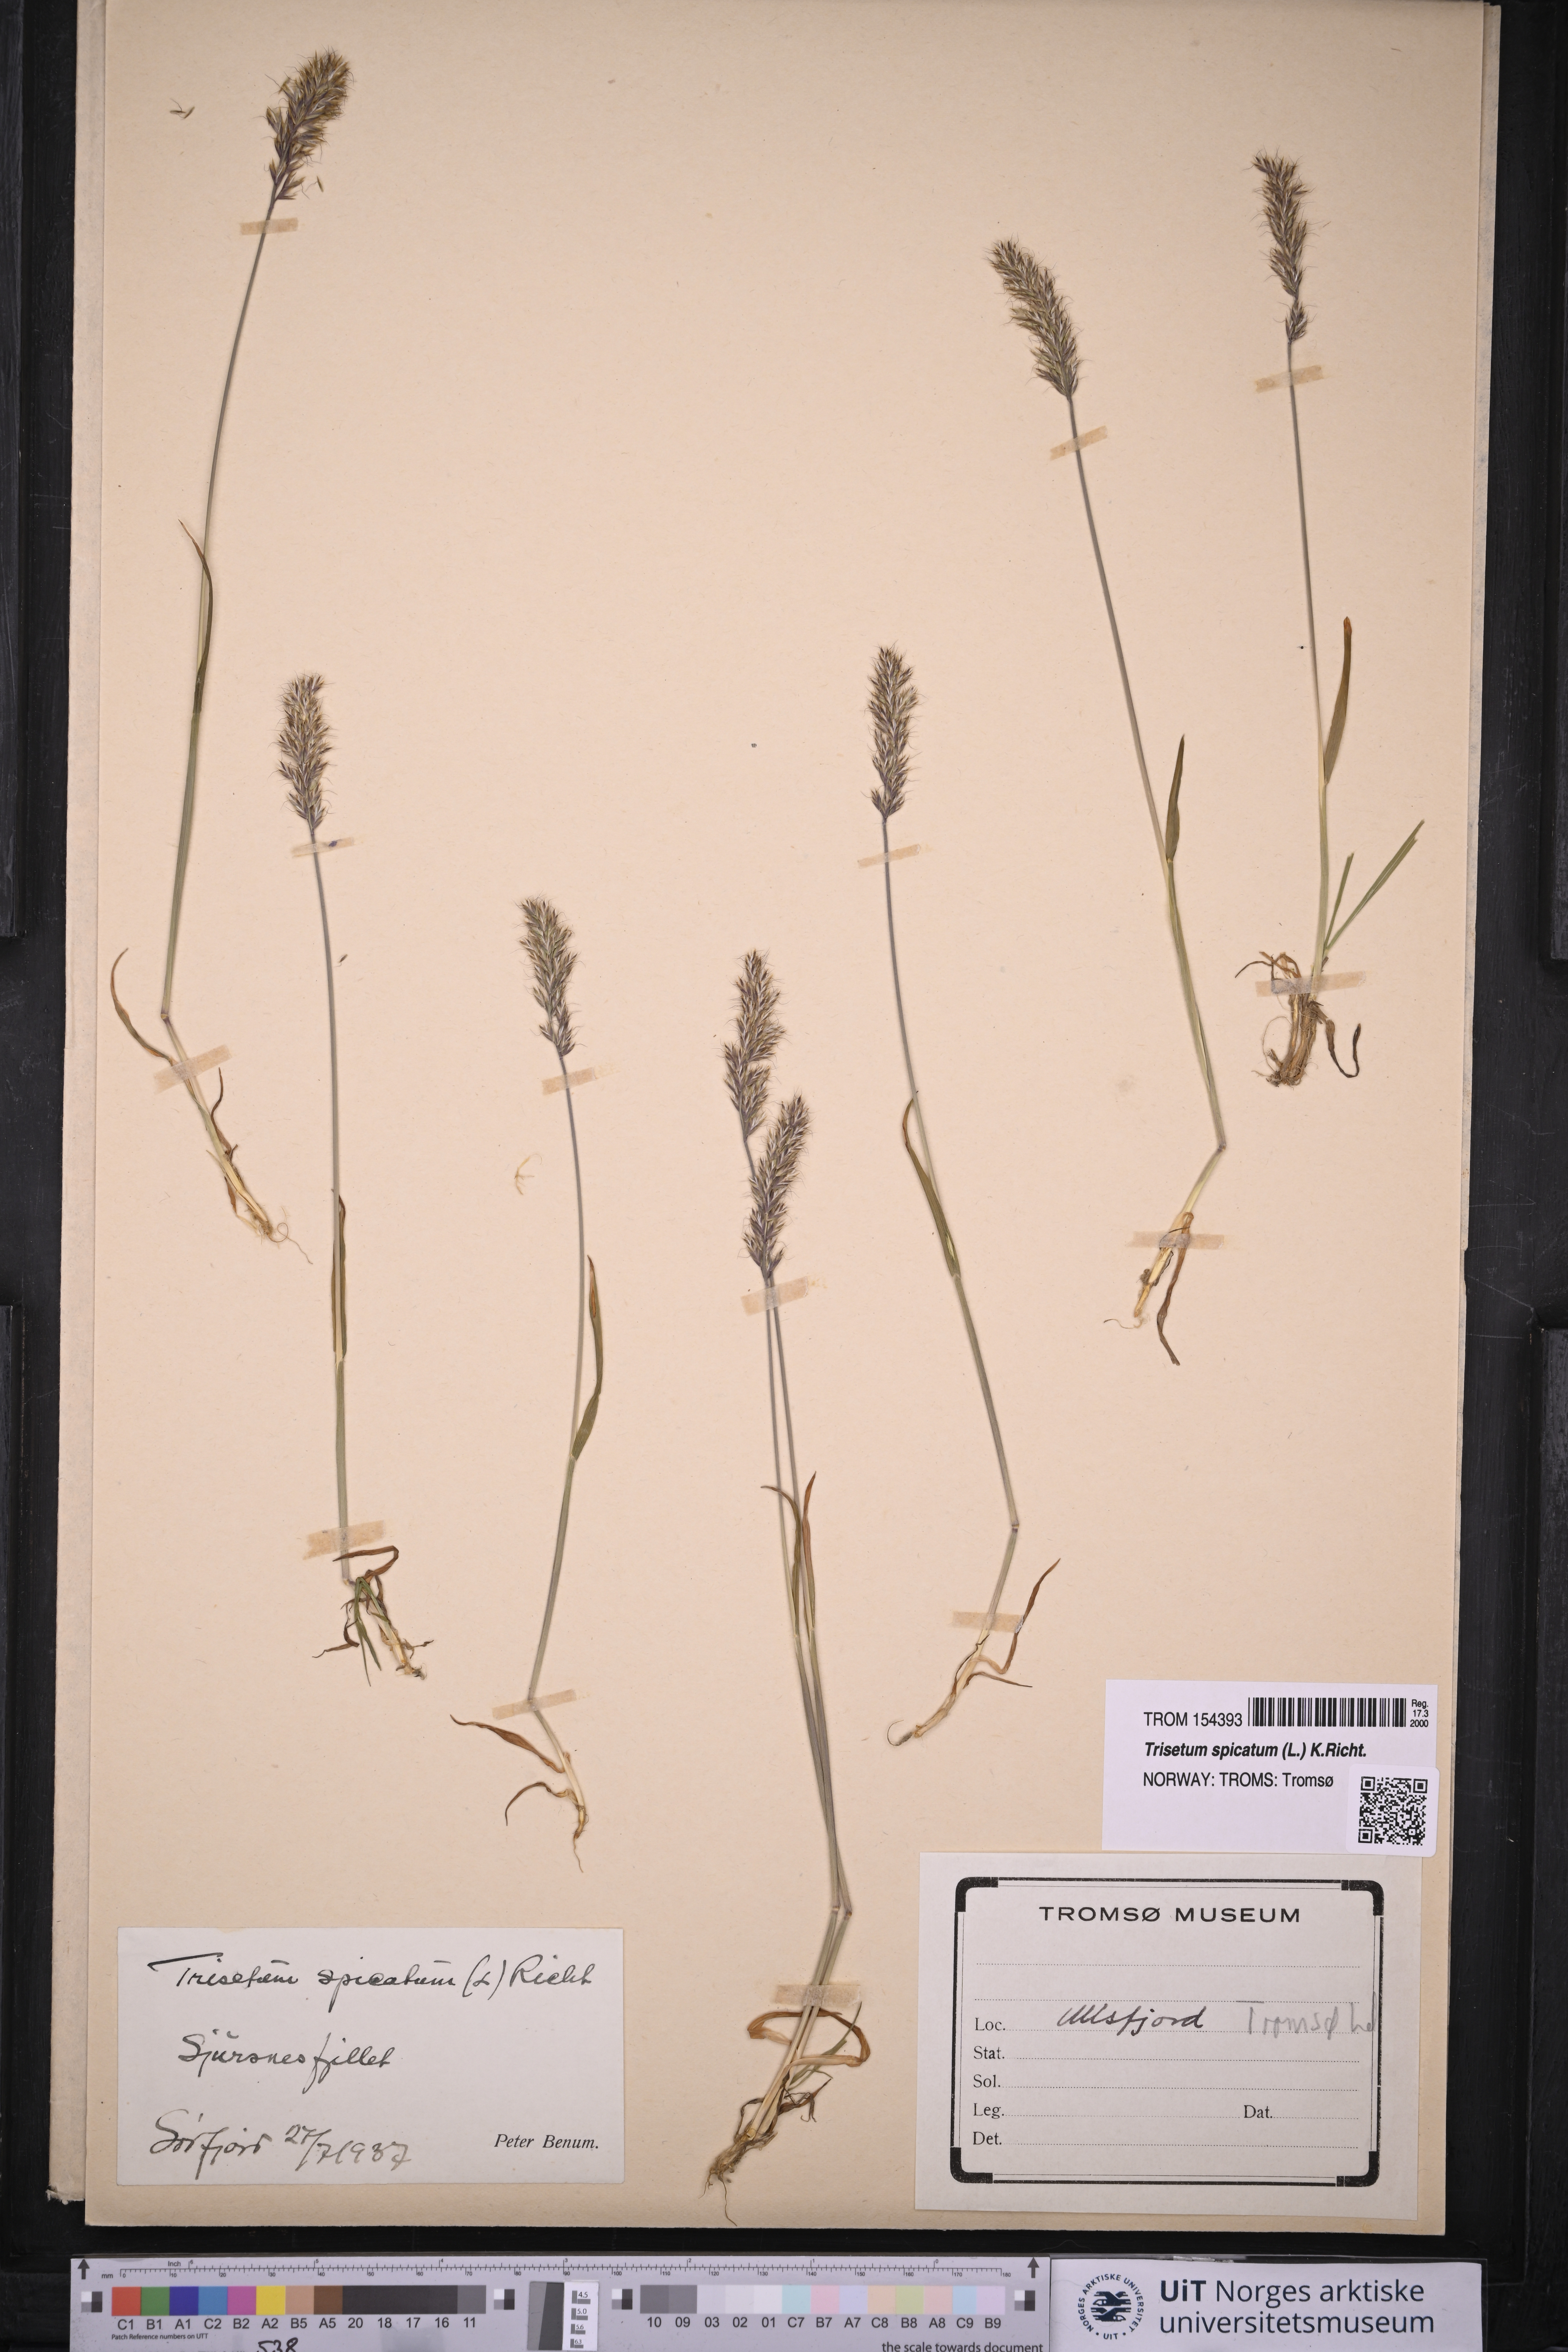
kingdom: Plantae
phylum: Tracheophyta
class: Liliopsida
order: Poales
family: Poaceae
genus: Koeleria
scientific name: Koeleria spicata
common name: Mountain trisetum
